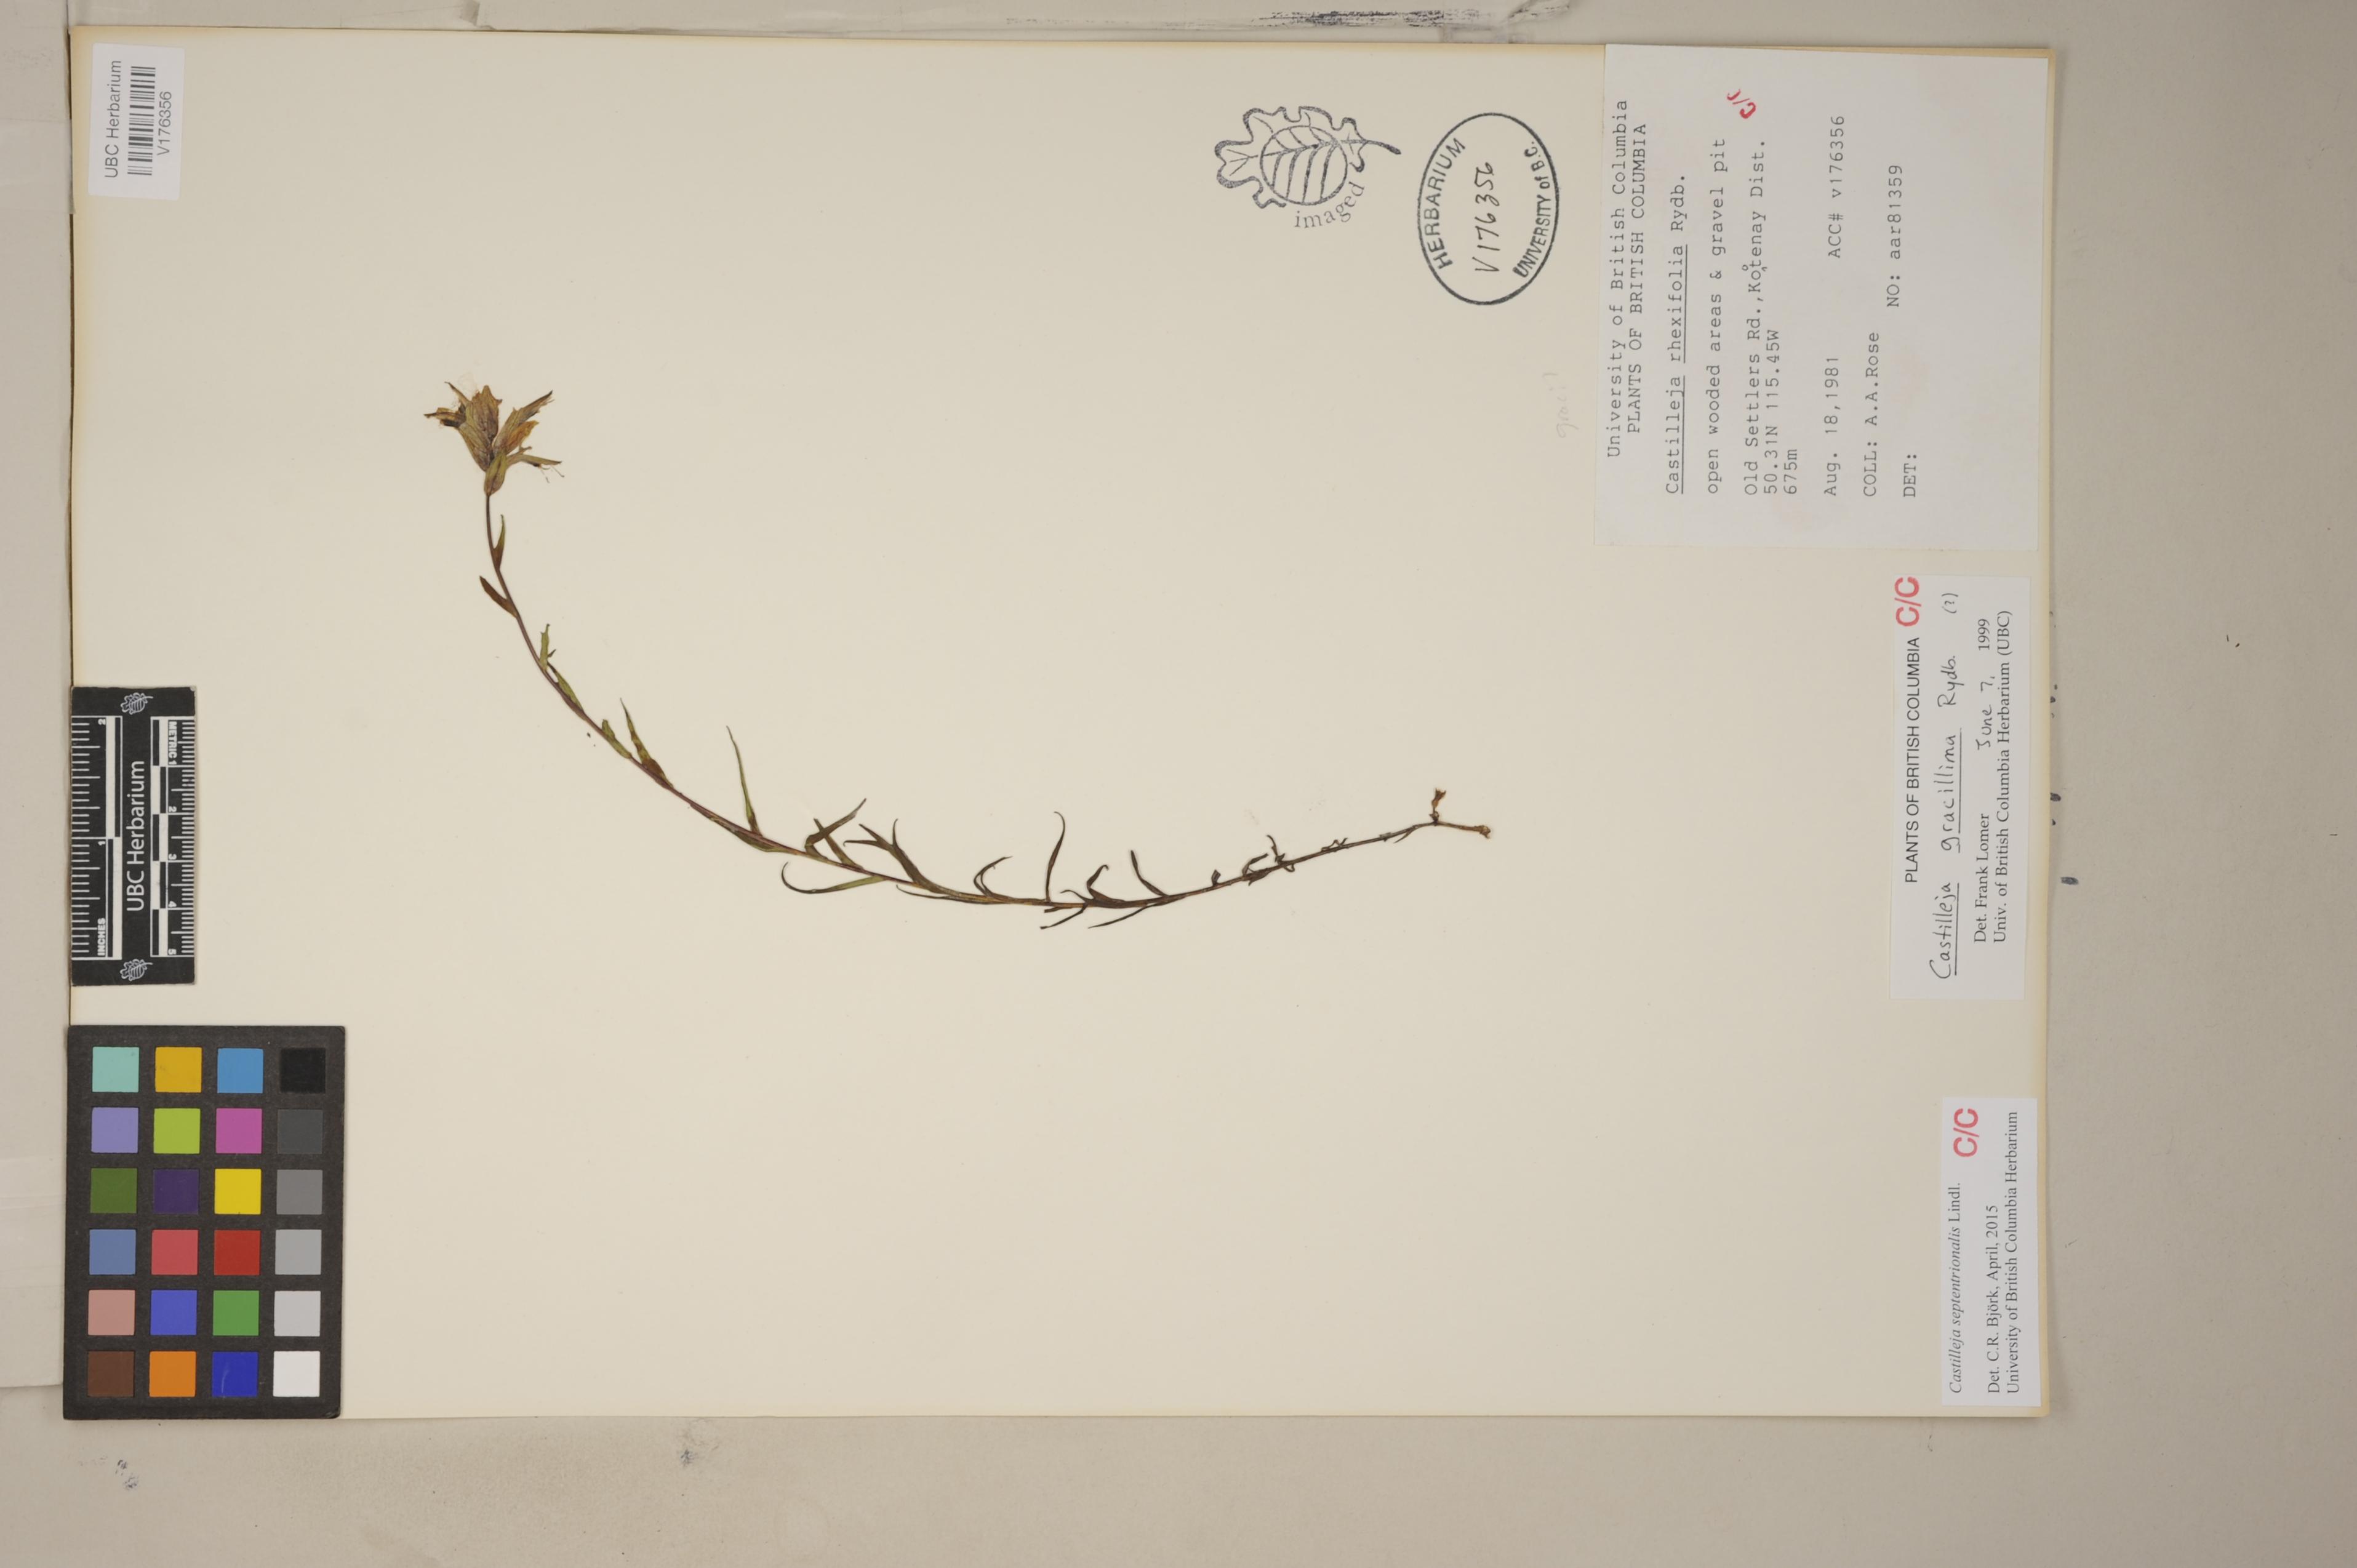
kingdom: Plantae
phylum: Tracheophyta
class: Magnoliopsida
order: Lamiales
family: Orobanchaceae
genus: Castilleja
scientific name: Castilleja septentrionalis
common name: Northeastern paintbrush
